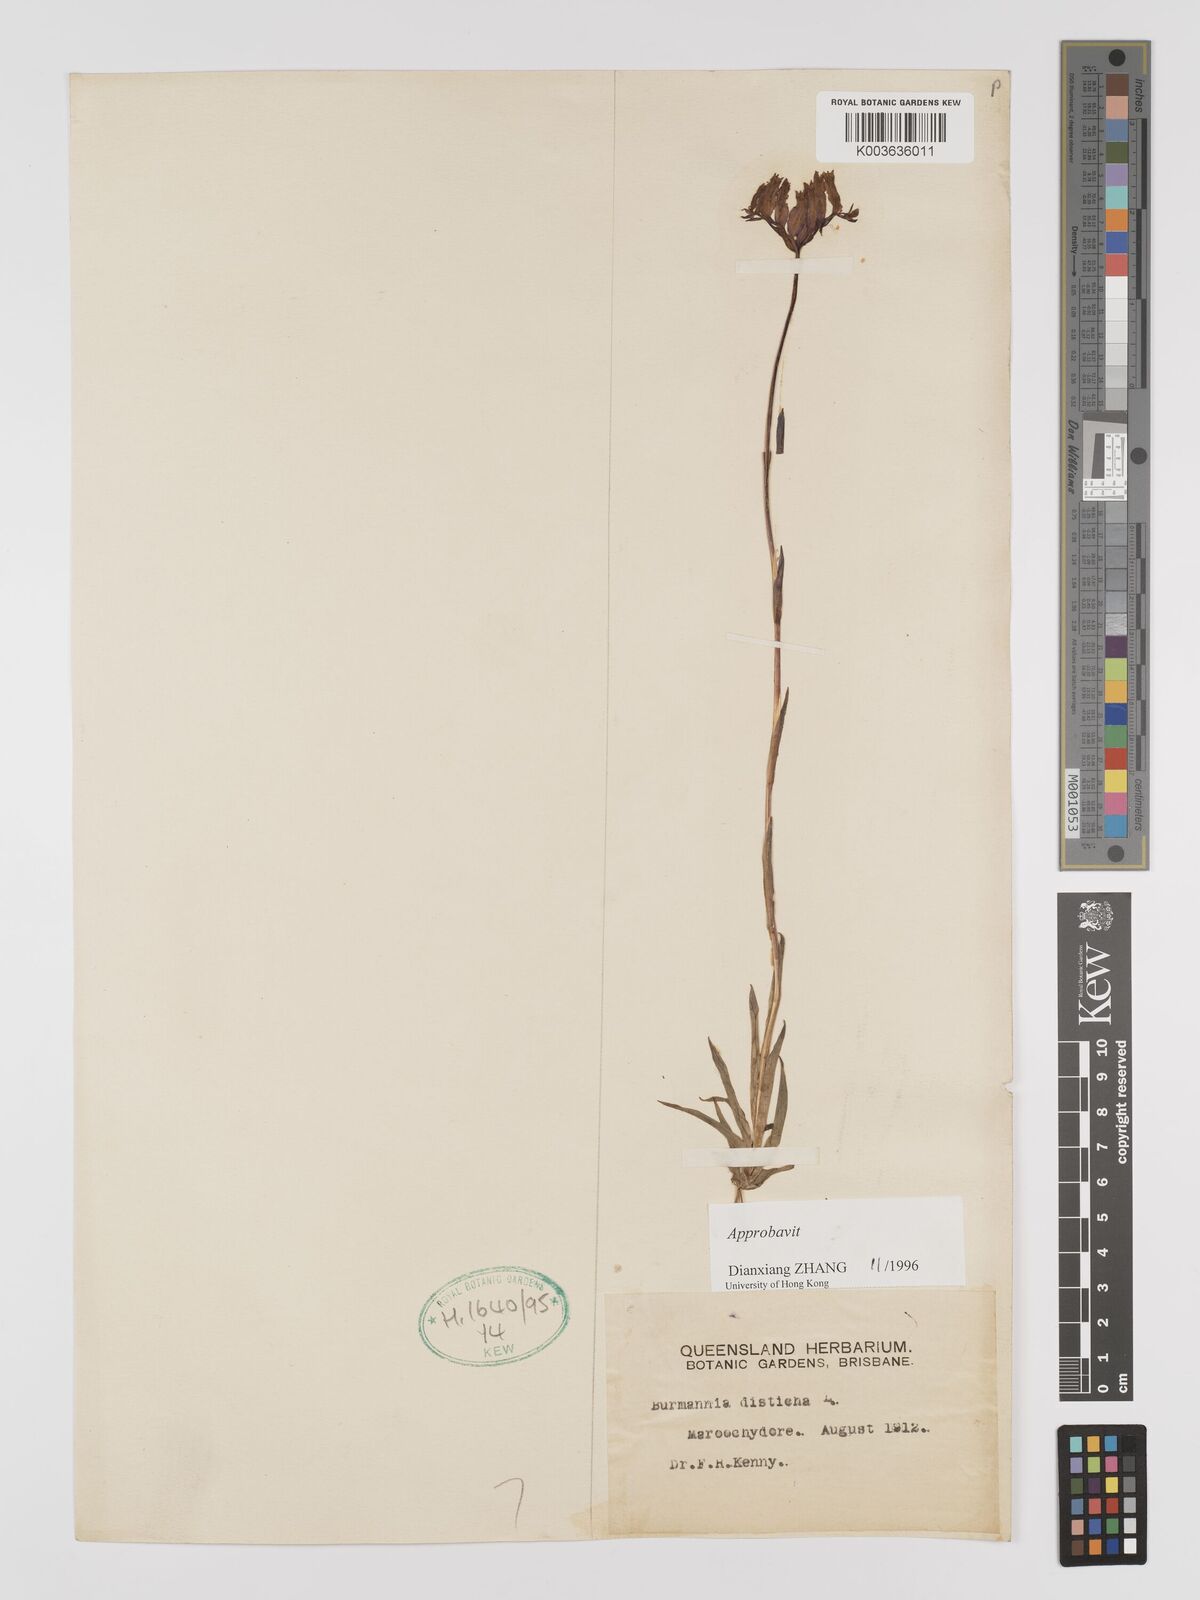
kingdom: Plantae
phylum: Tracheophyta
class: Liliopsida
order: Dioscoreales
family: Burmanniaceae
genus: Burmannia
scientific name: Burmannia disticha
